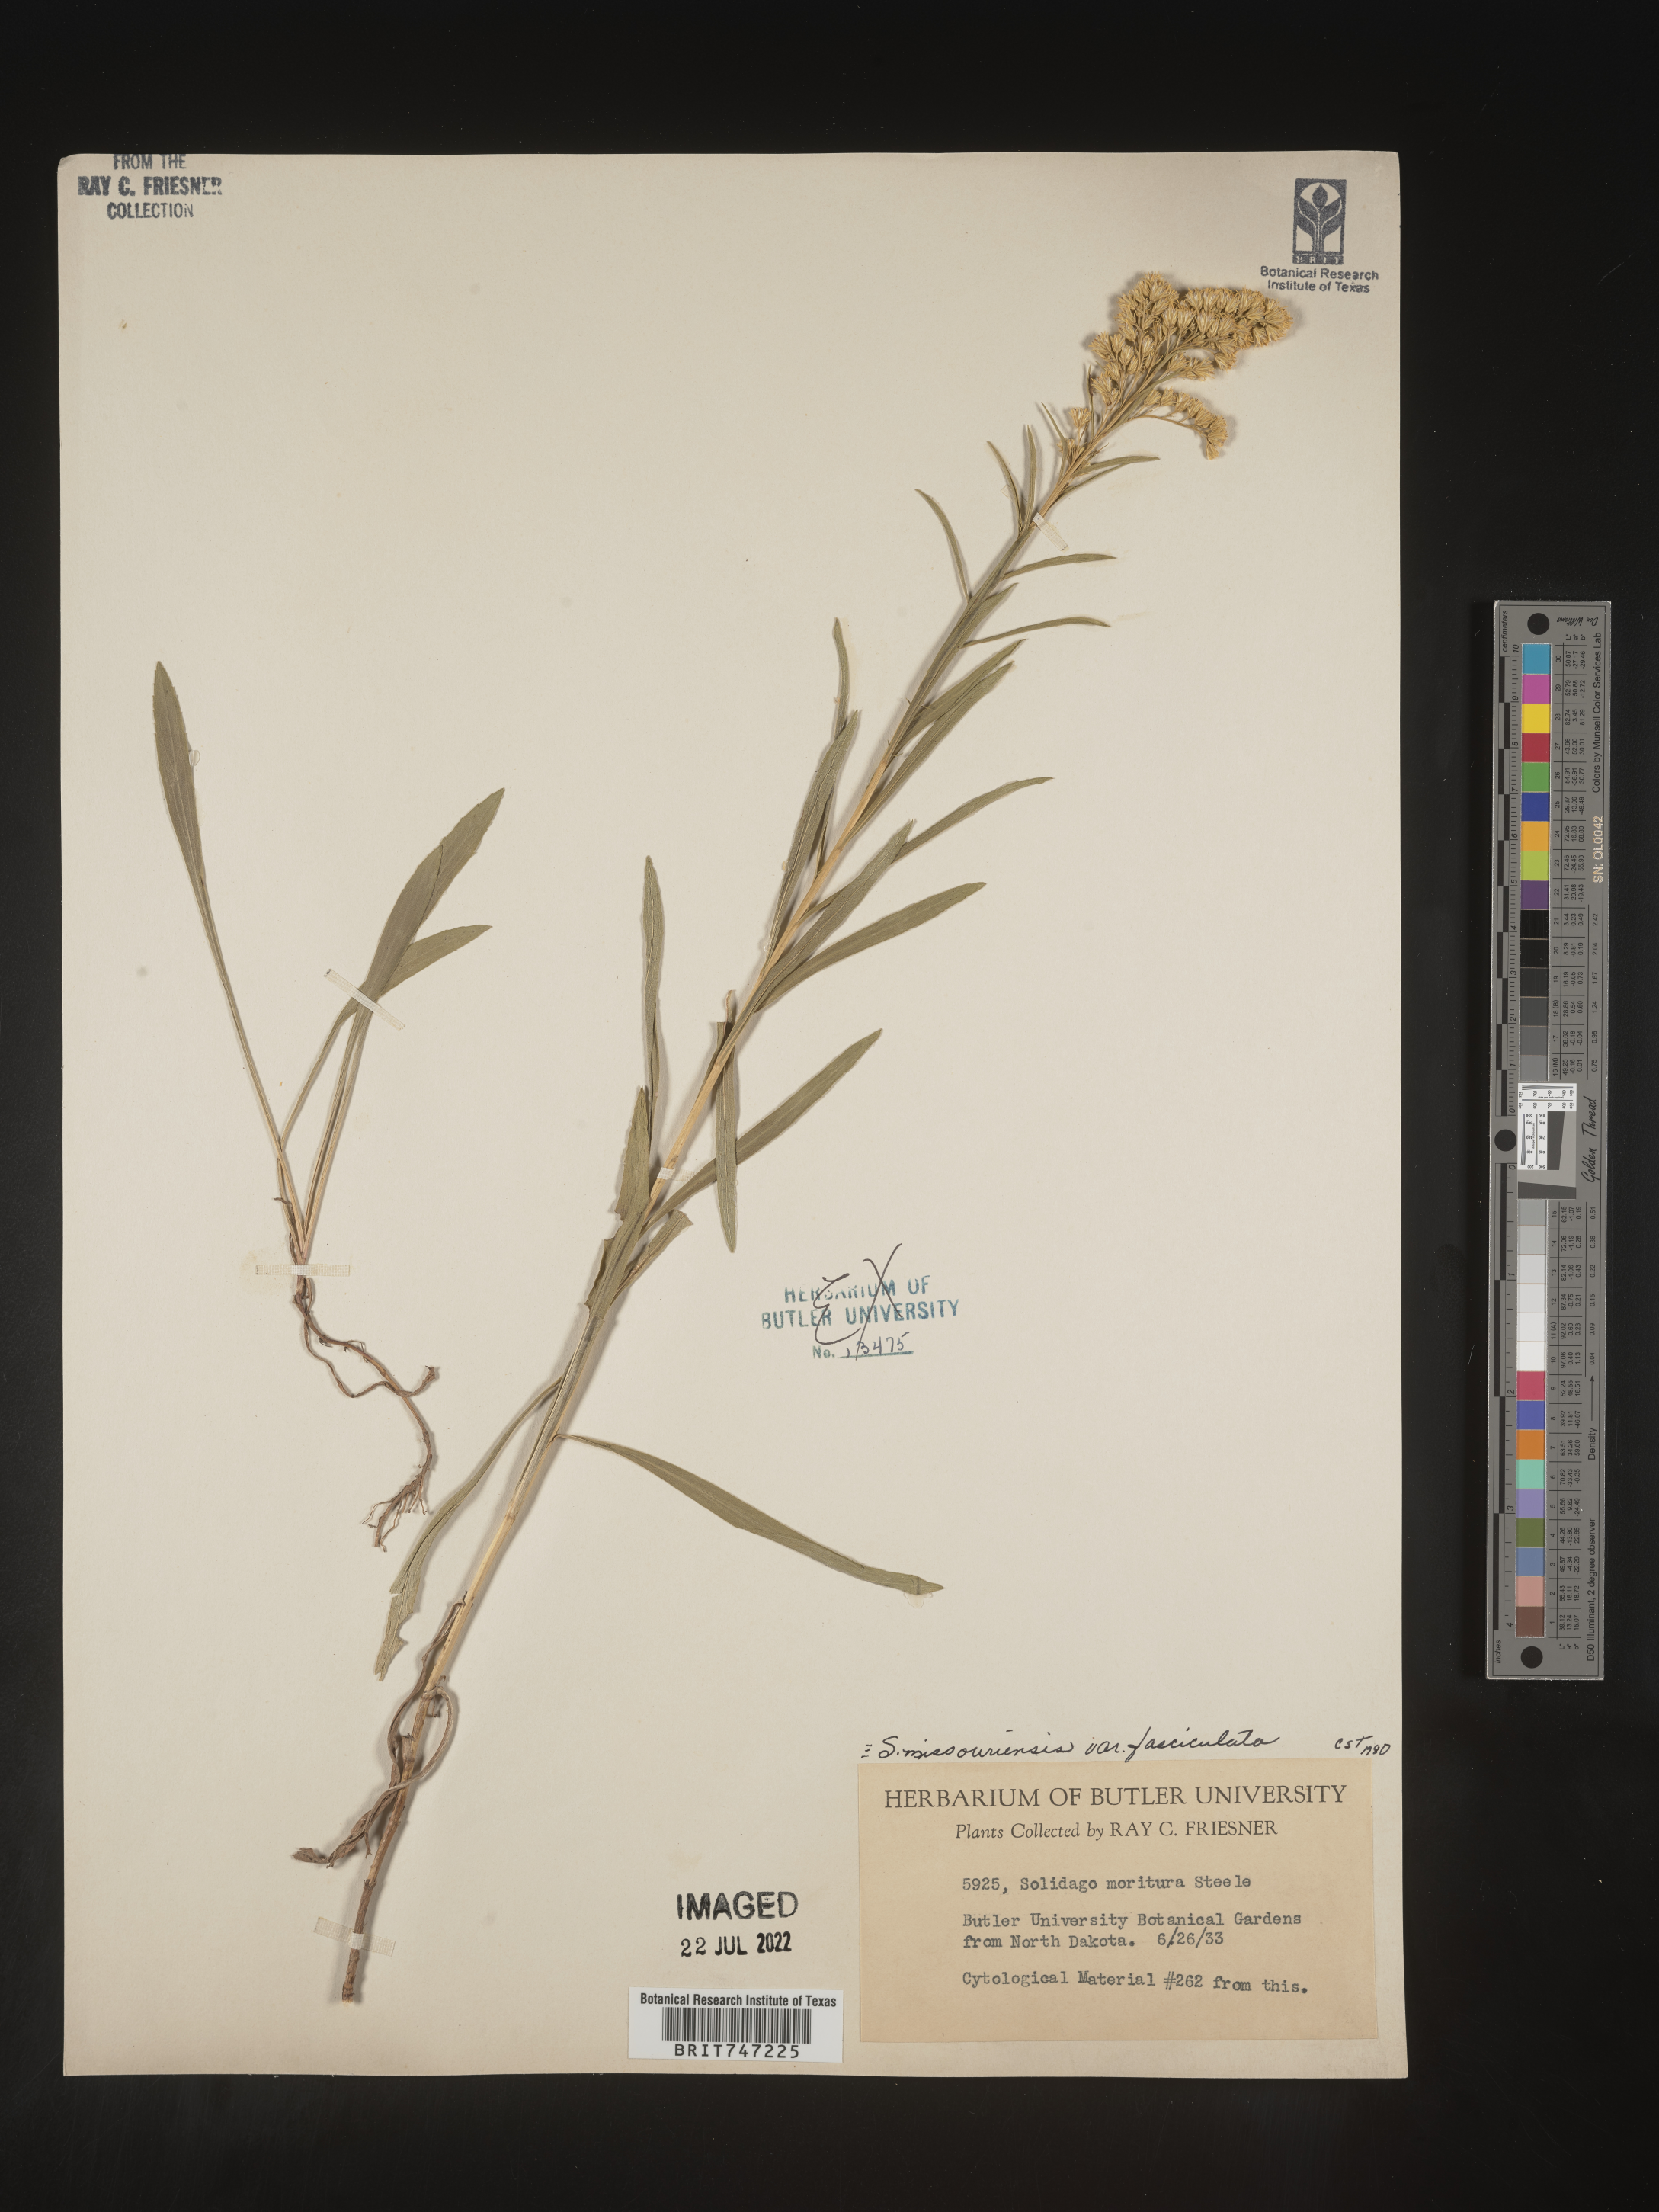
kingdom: Plantae
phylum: Tracheophyta
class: Magnoliopsida
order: Asterales
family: Asteraceae
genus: Solidago
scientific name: Solidago missouriensis
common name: Prairie goldenrod
